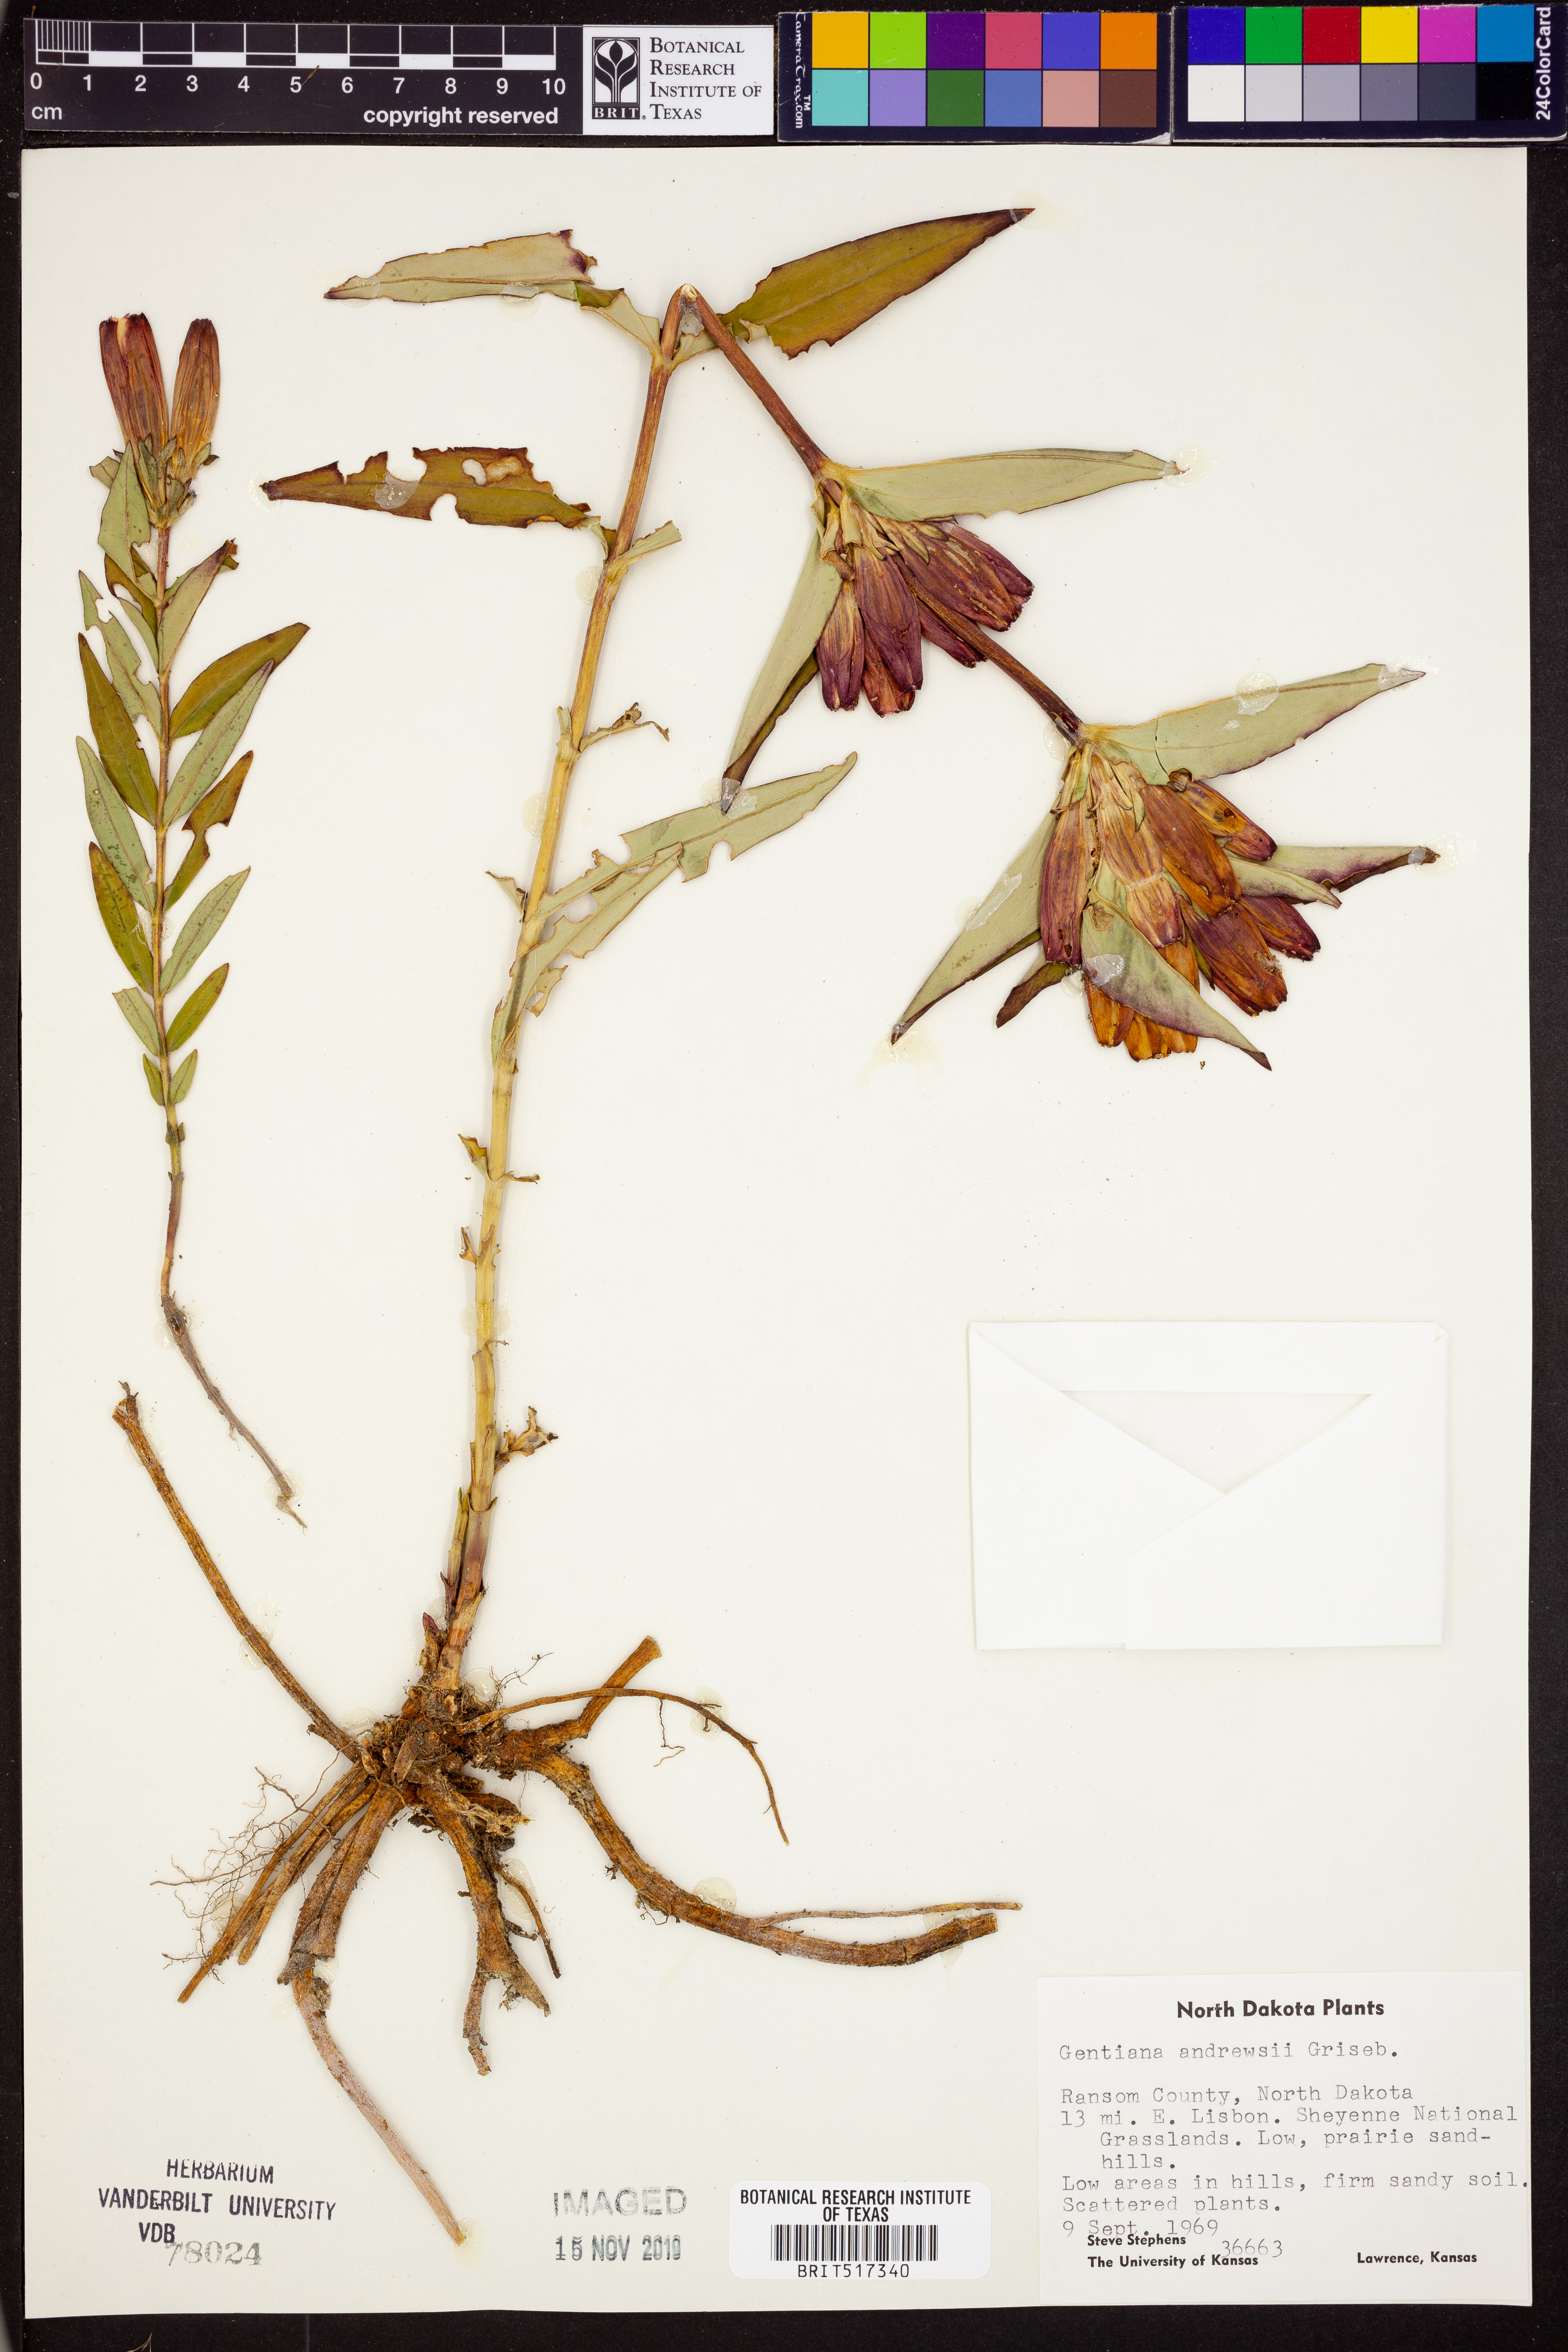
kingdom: Plantae
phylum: Tracheophyta
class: Magnoliopsida
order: Gentianales
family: Gentianaceae
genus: Gentiana
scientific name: Gentiana andrewsii
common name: Bottle gentian
